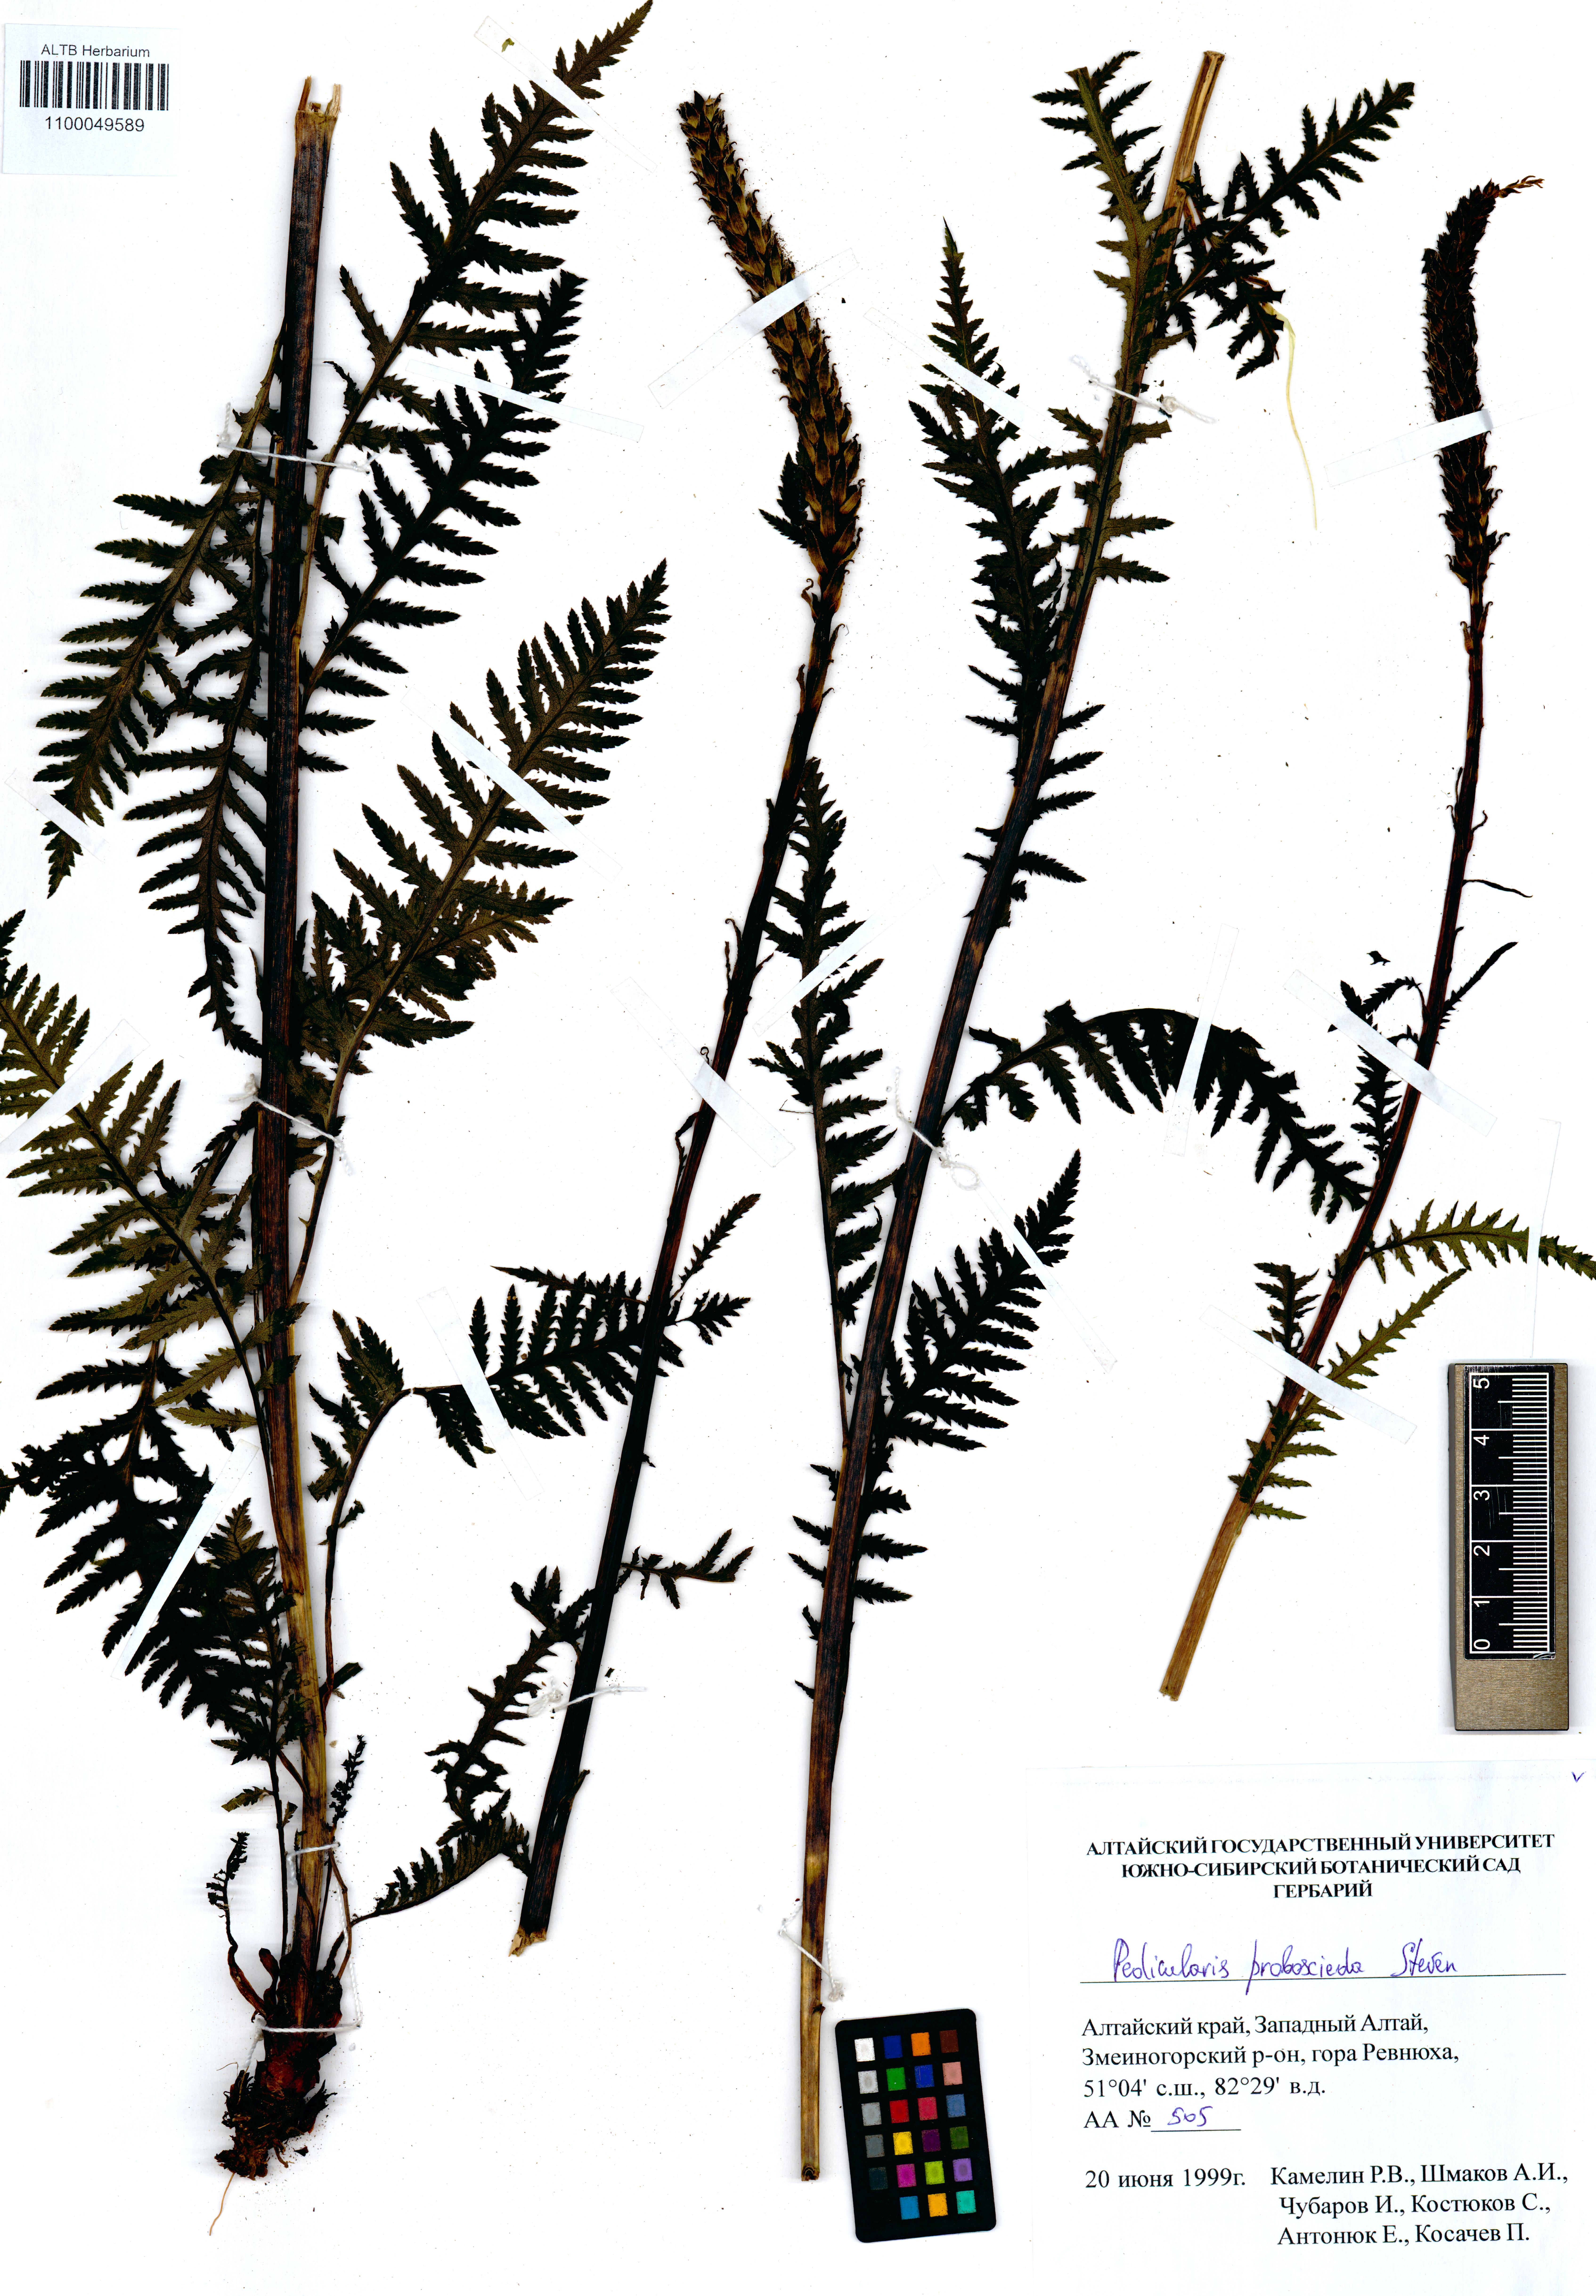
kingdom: Plantae
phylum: Tracheophyta
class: Magnoliopsida
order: Lamiales
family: Orobanchaceae
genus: Pedicularis
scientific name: Pedicularis proboscidea
